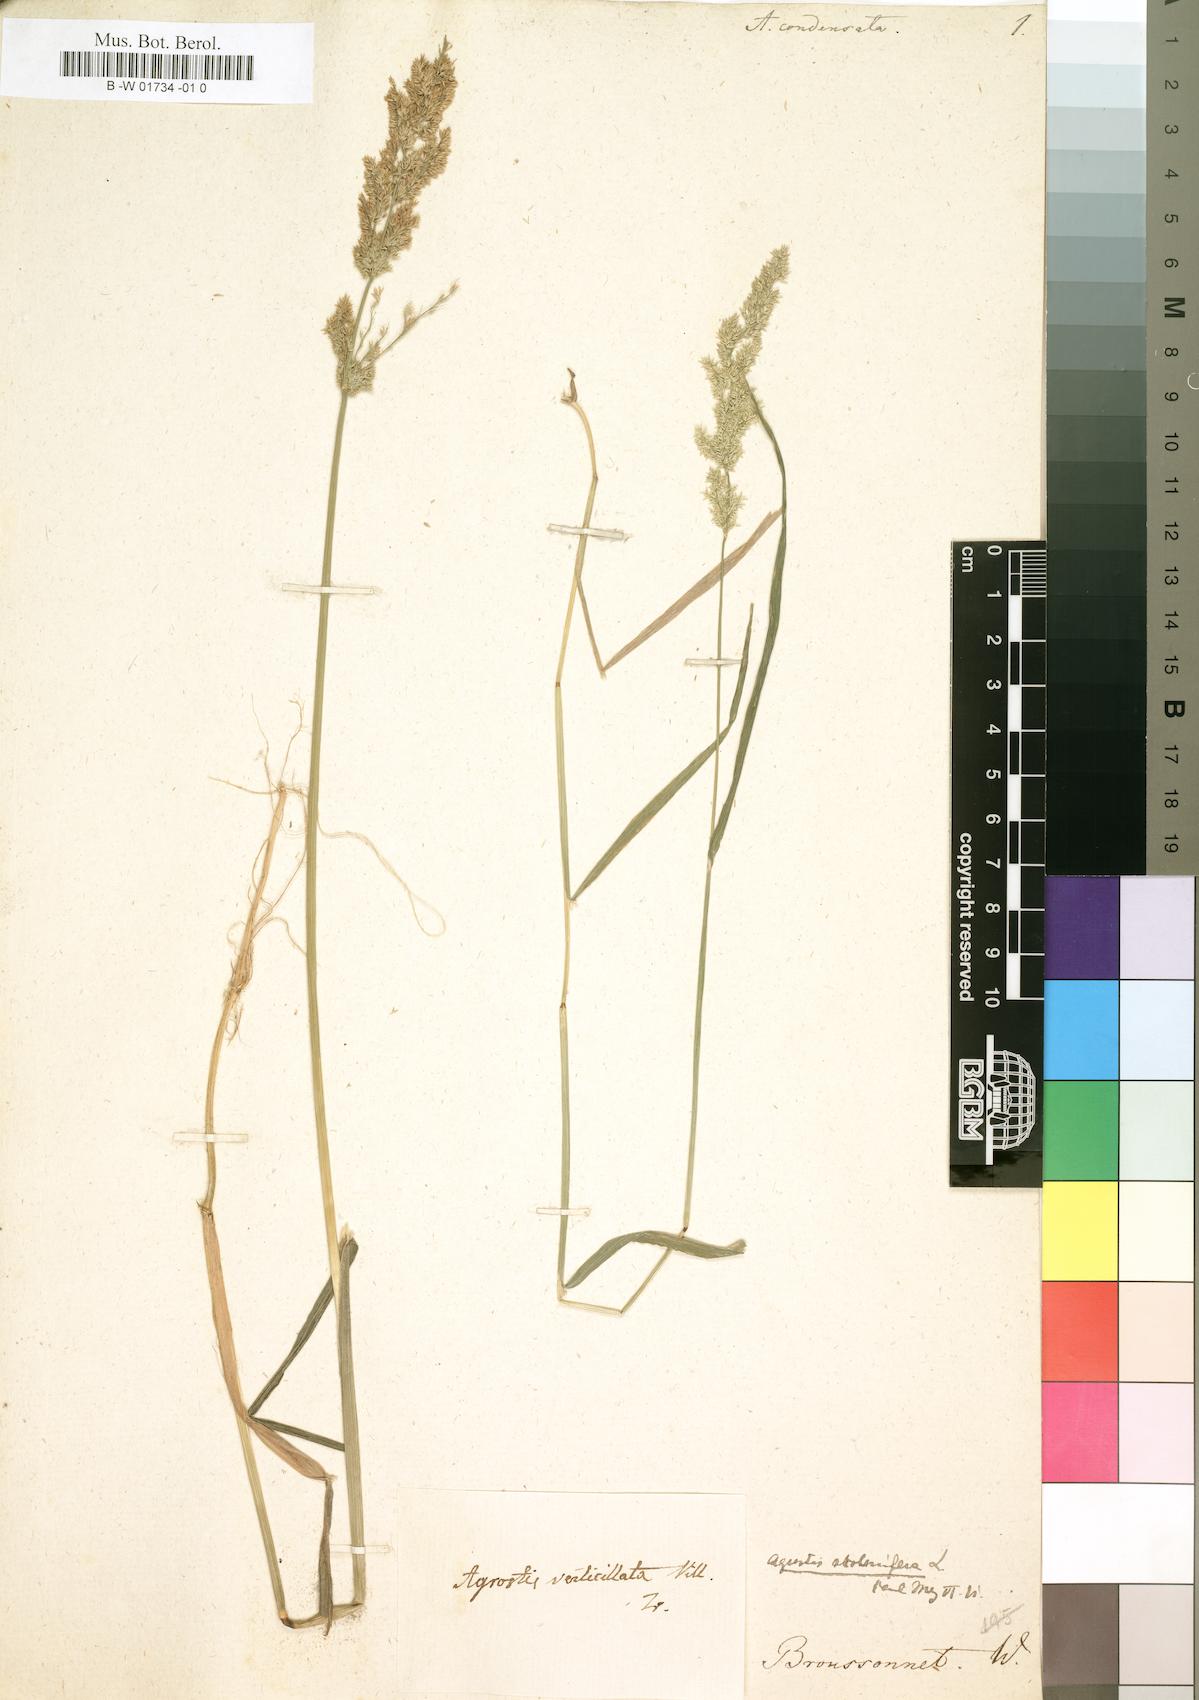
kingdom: Plantae
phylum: Tracheophyta
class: Liliopsida
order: Poales
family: Poaceae
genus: Polypogon
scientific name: Polypogon viridis
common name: Water bent
